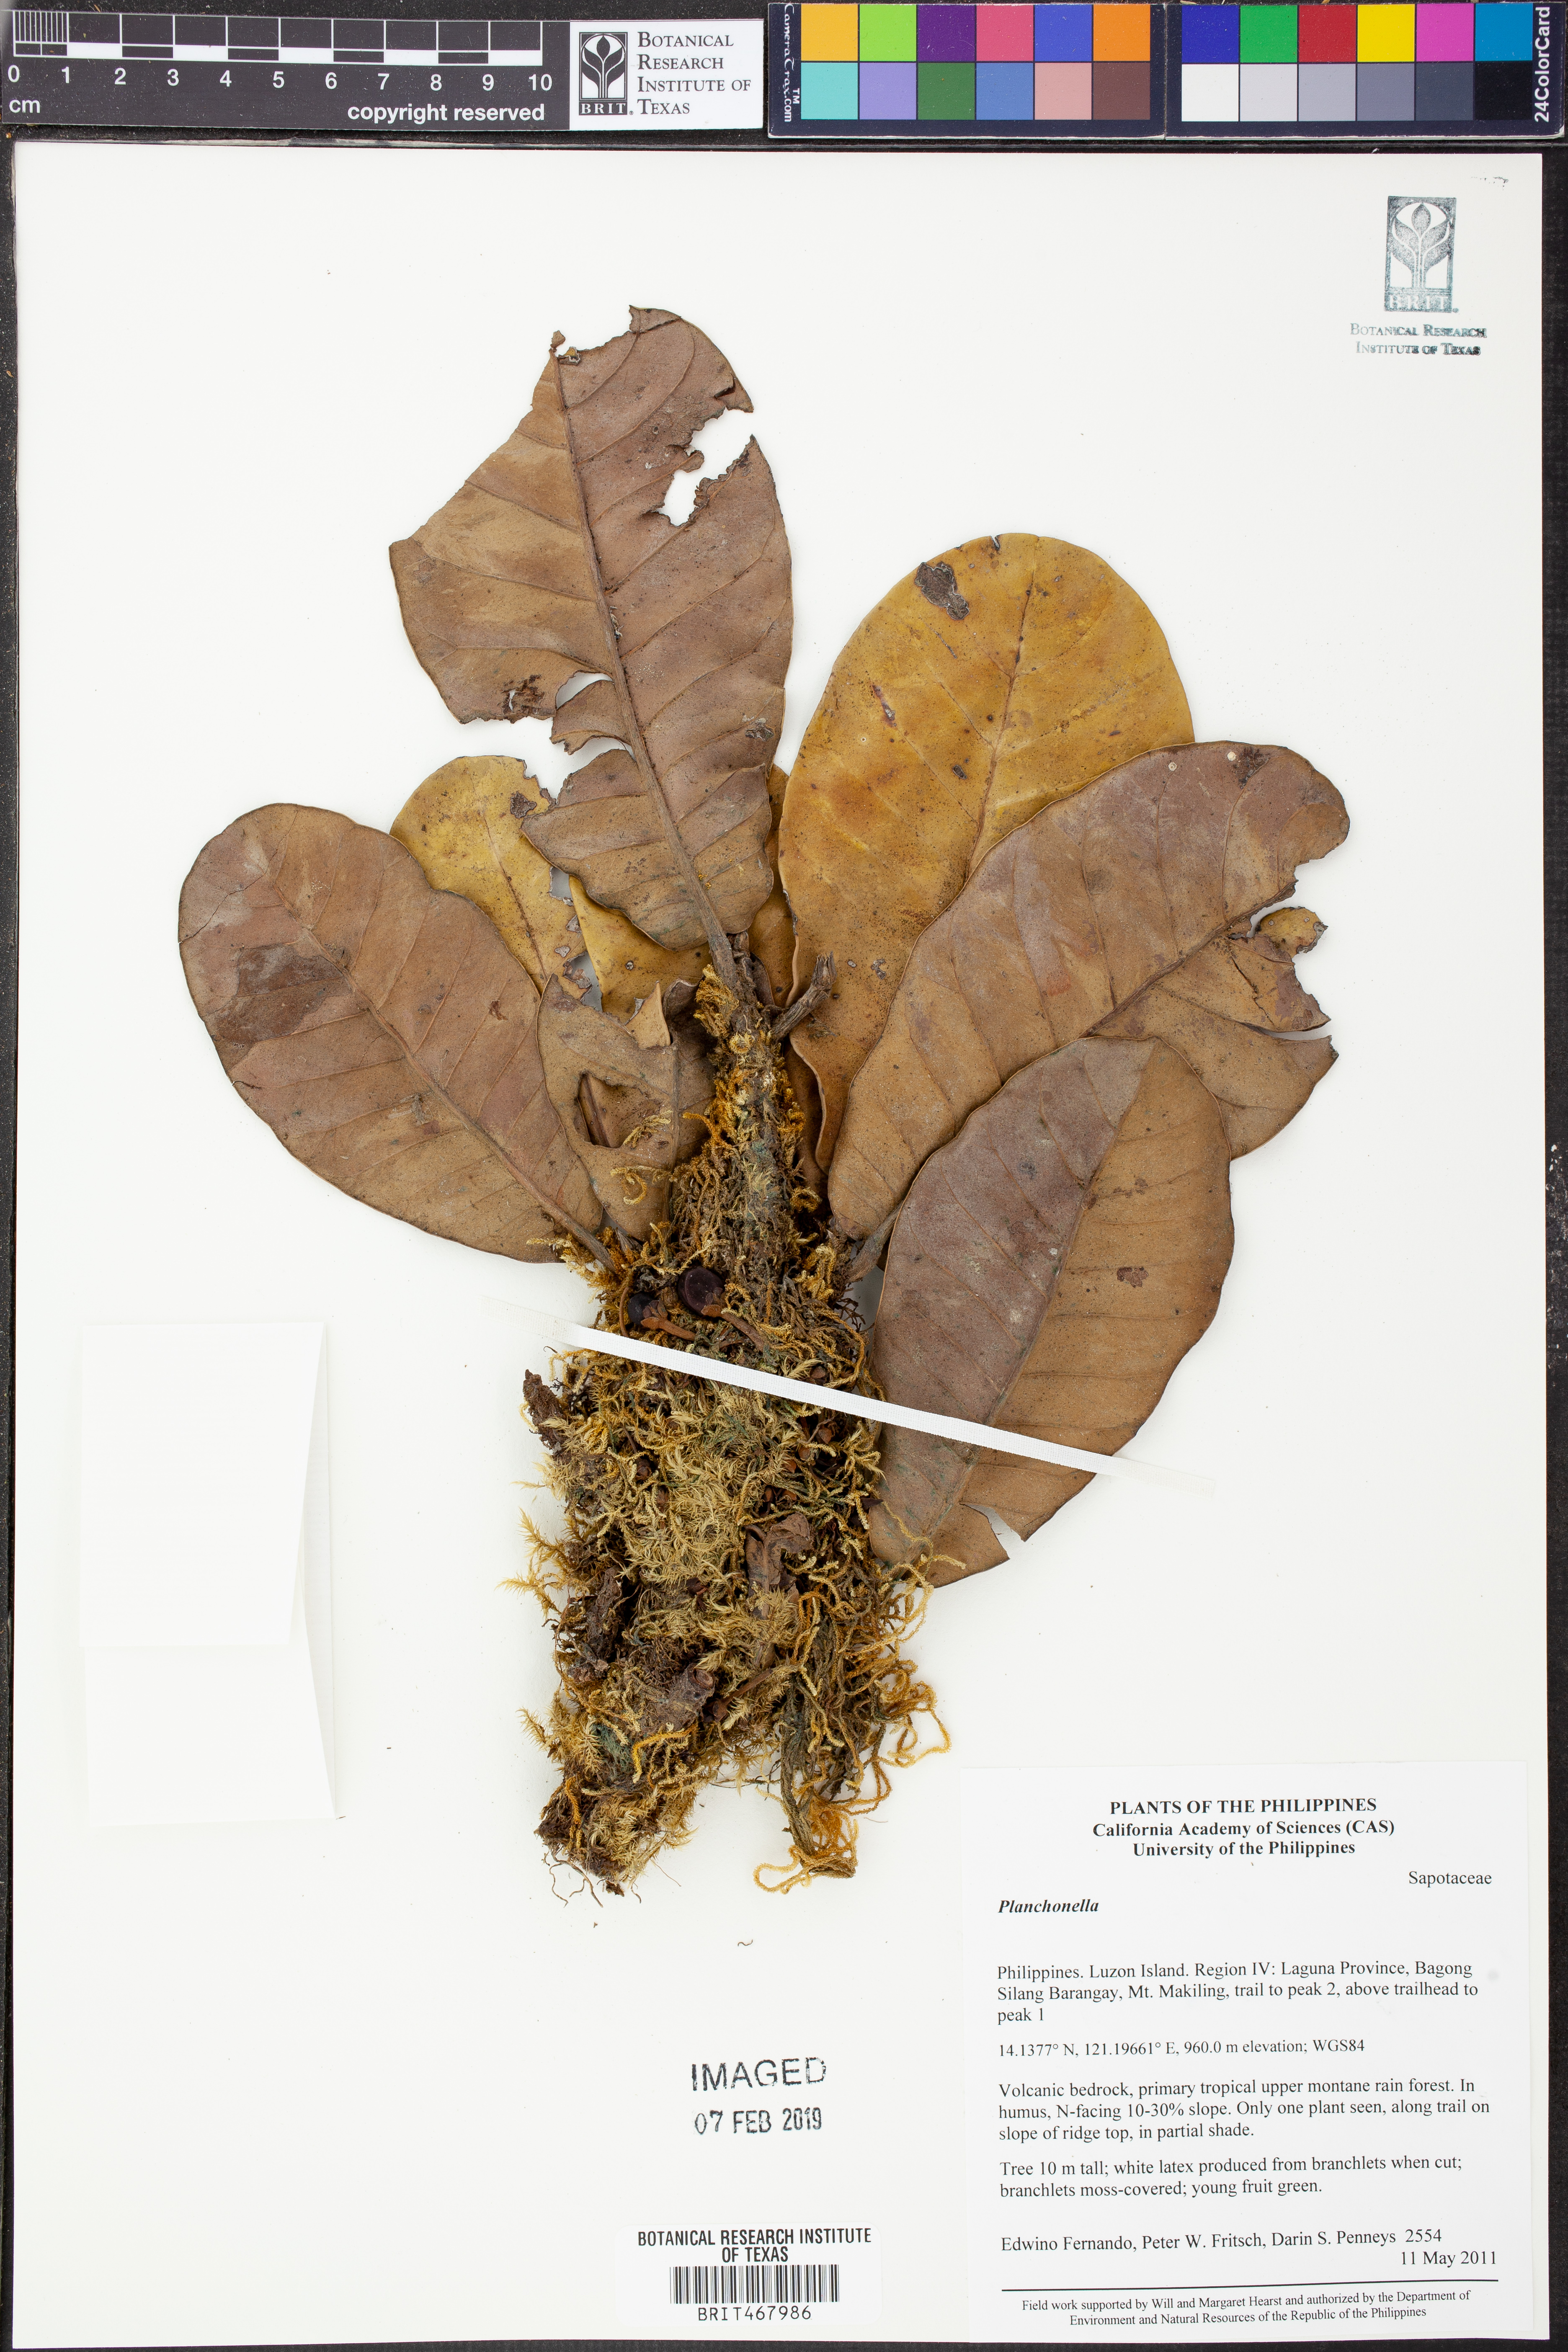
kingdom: Plantae
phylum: Tracheophyta
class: Magnoliopsida
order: Ericales
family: Sapotaceae
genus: Planchonella
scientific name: Planchonella
